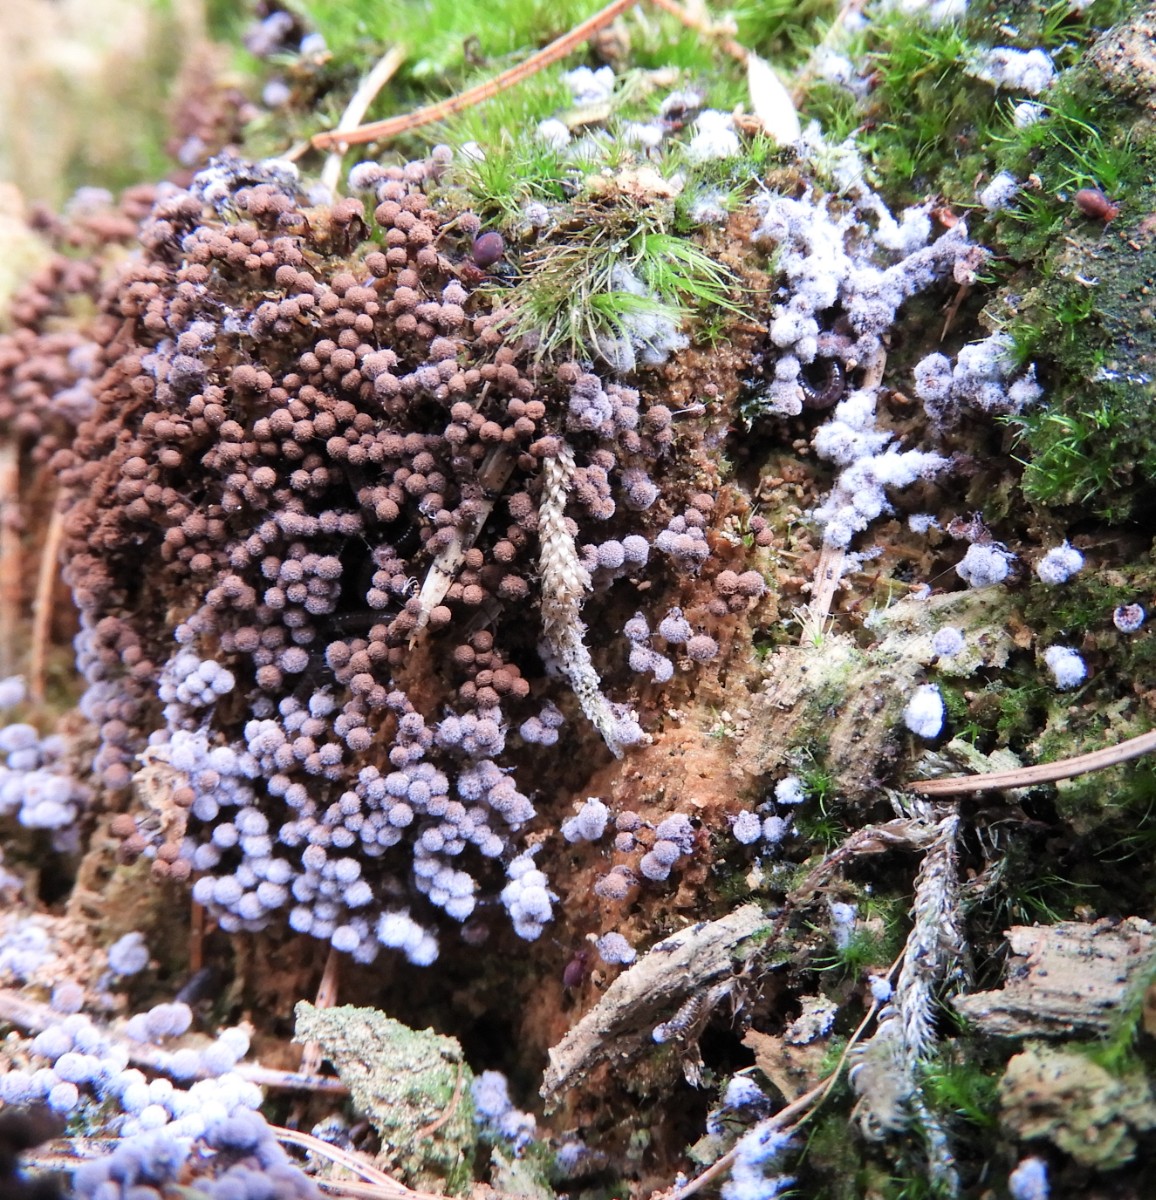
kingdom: Protozoa
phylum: Mycetozoa
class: Myxomycetes
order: Cribrariales
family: Cribrariaceae
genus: Cribraria
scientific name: Cribraria
